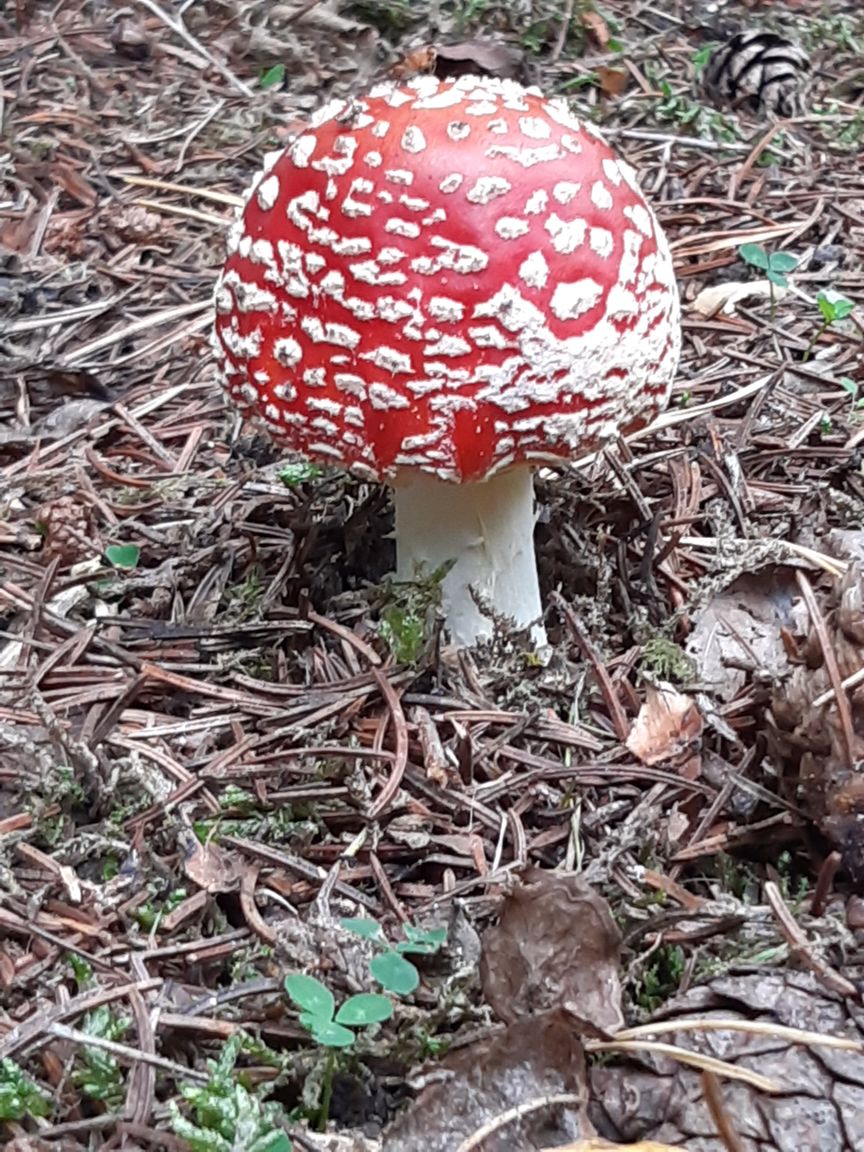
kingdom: Fungi
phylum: Basidiomycota
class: Agaricomycetes
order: Agaricales
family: Amanitaceae
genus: Amanita
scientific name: Amanita muscaria
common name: rød fluesvamp
